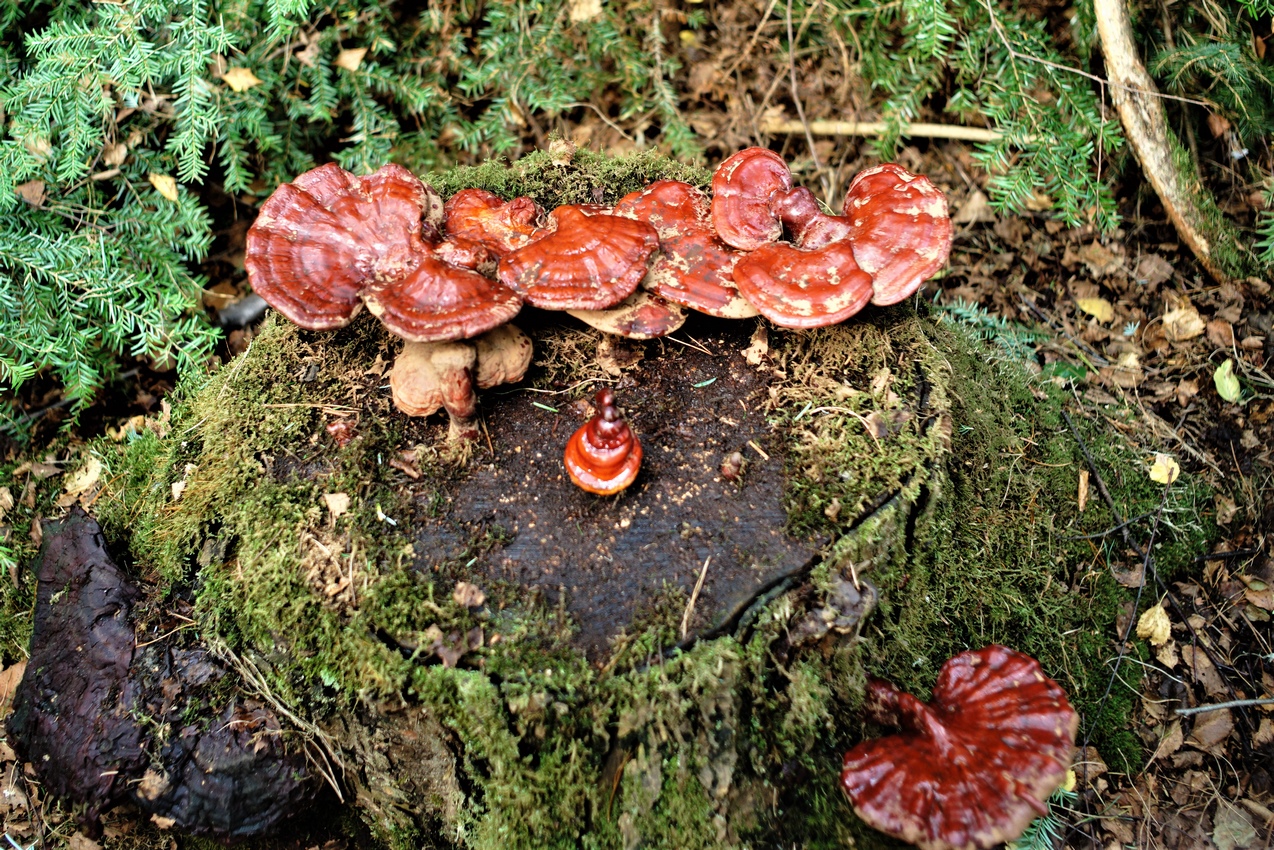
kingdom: Fungi
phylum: Basidiomycota
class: Agaricomycetes
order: Polyporales
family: Polyporaceae
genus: Ganoderma
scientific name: Ganoderma lucidum
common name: skinnende lakporesvamp
